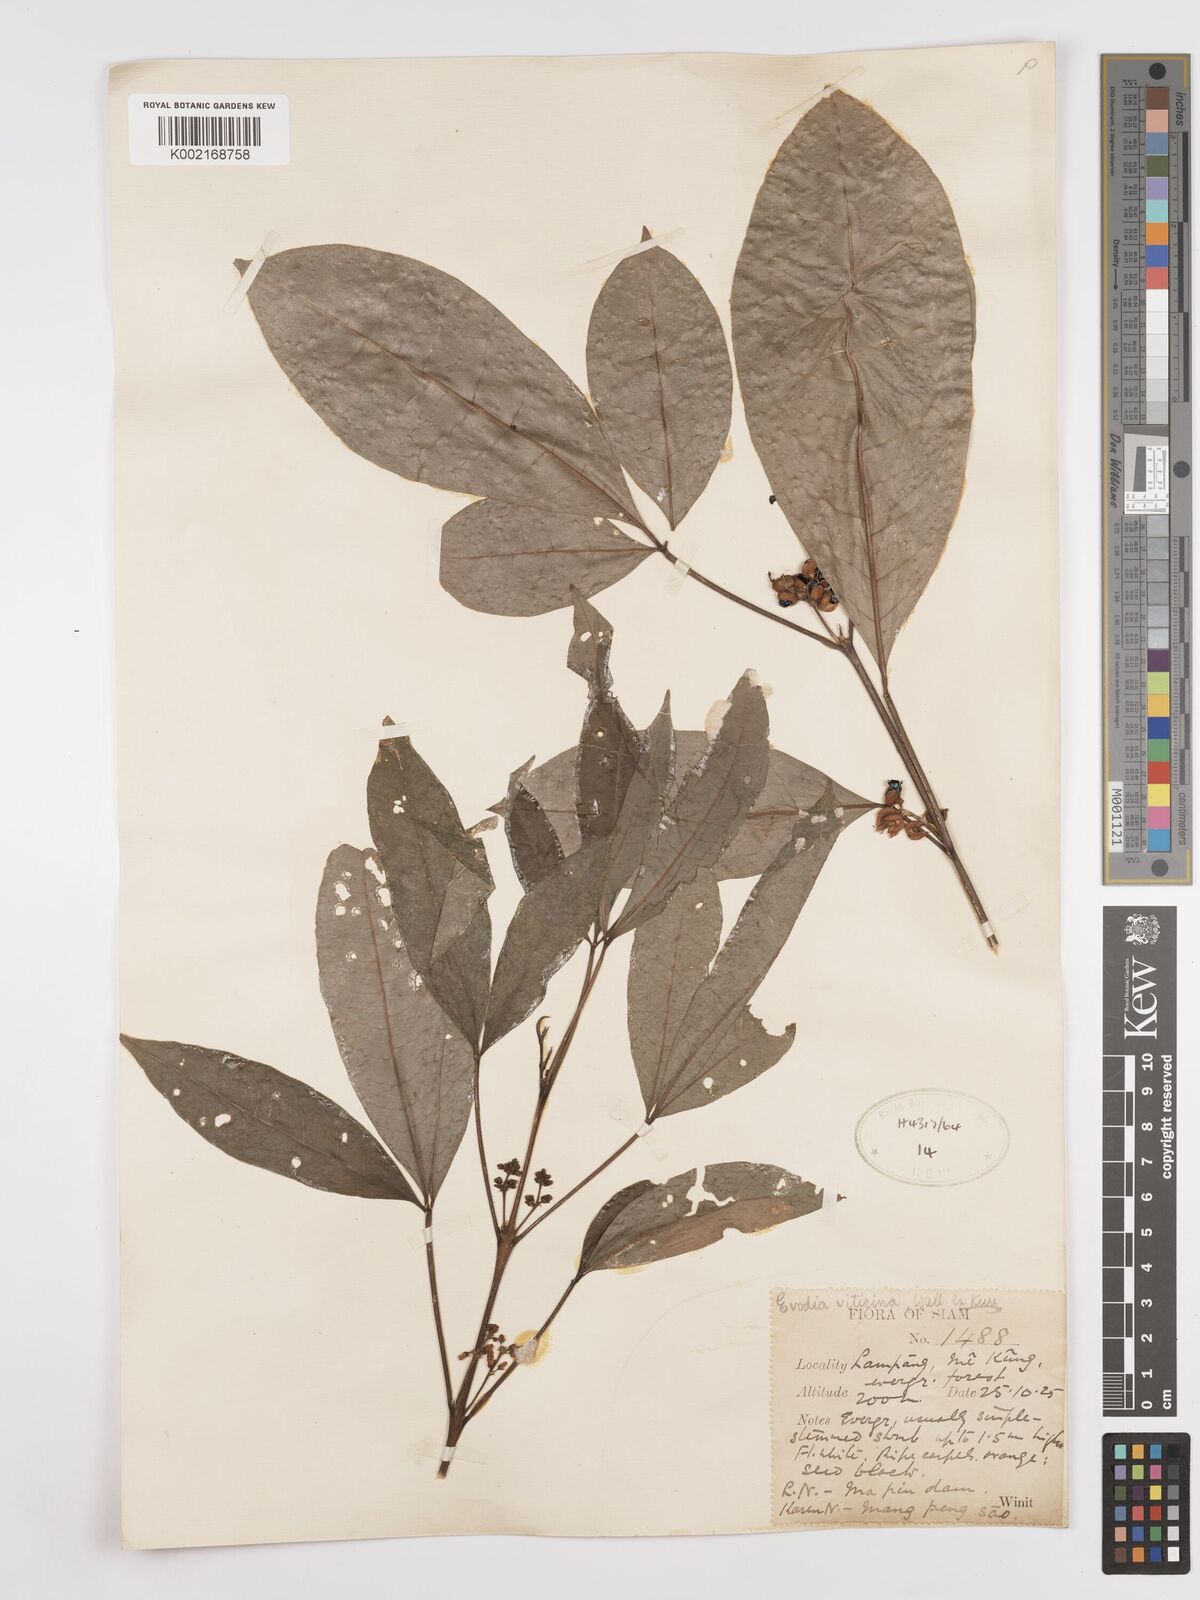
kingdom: Plantae
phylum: Tracheophyta
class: Magnoliopsida
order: Sapindales
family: Rutaceae
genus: Euodia
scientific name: Euodia
